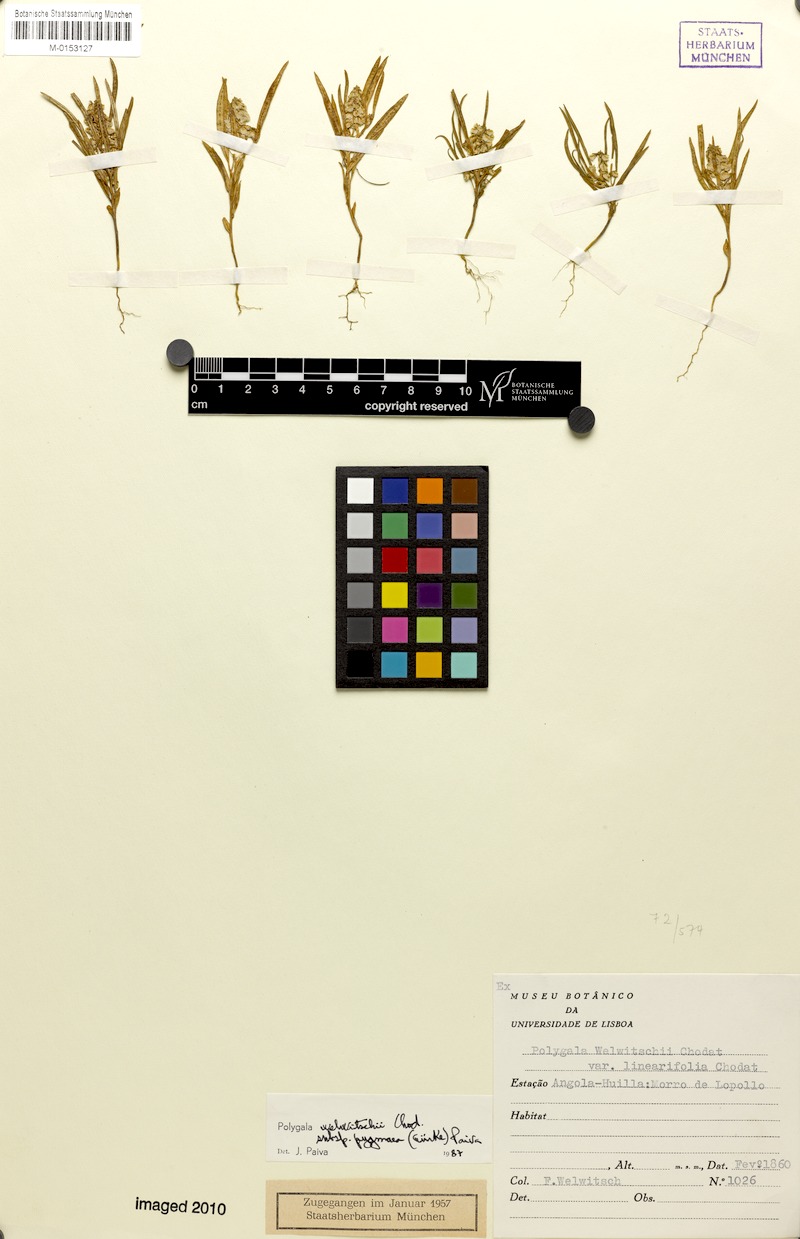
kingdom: Plantae
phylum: Tracheophyta
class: Magnoliopsida
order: Fabales
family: Polygalaceae
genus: Polygala
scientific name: Polygala welwitschii
